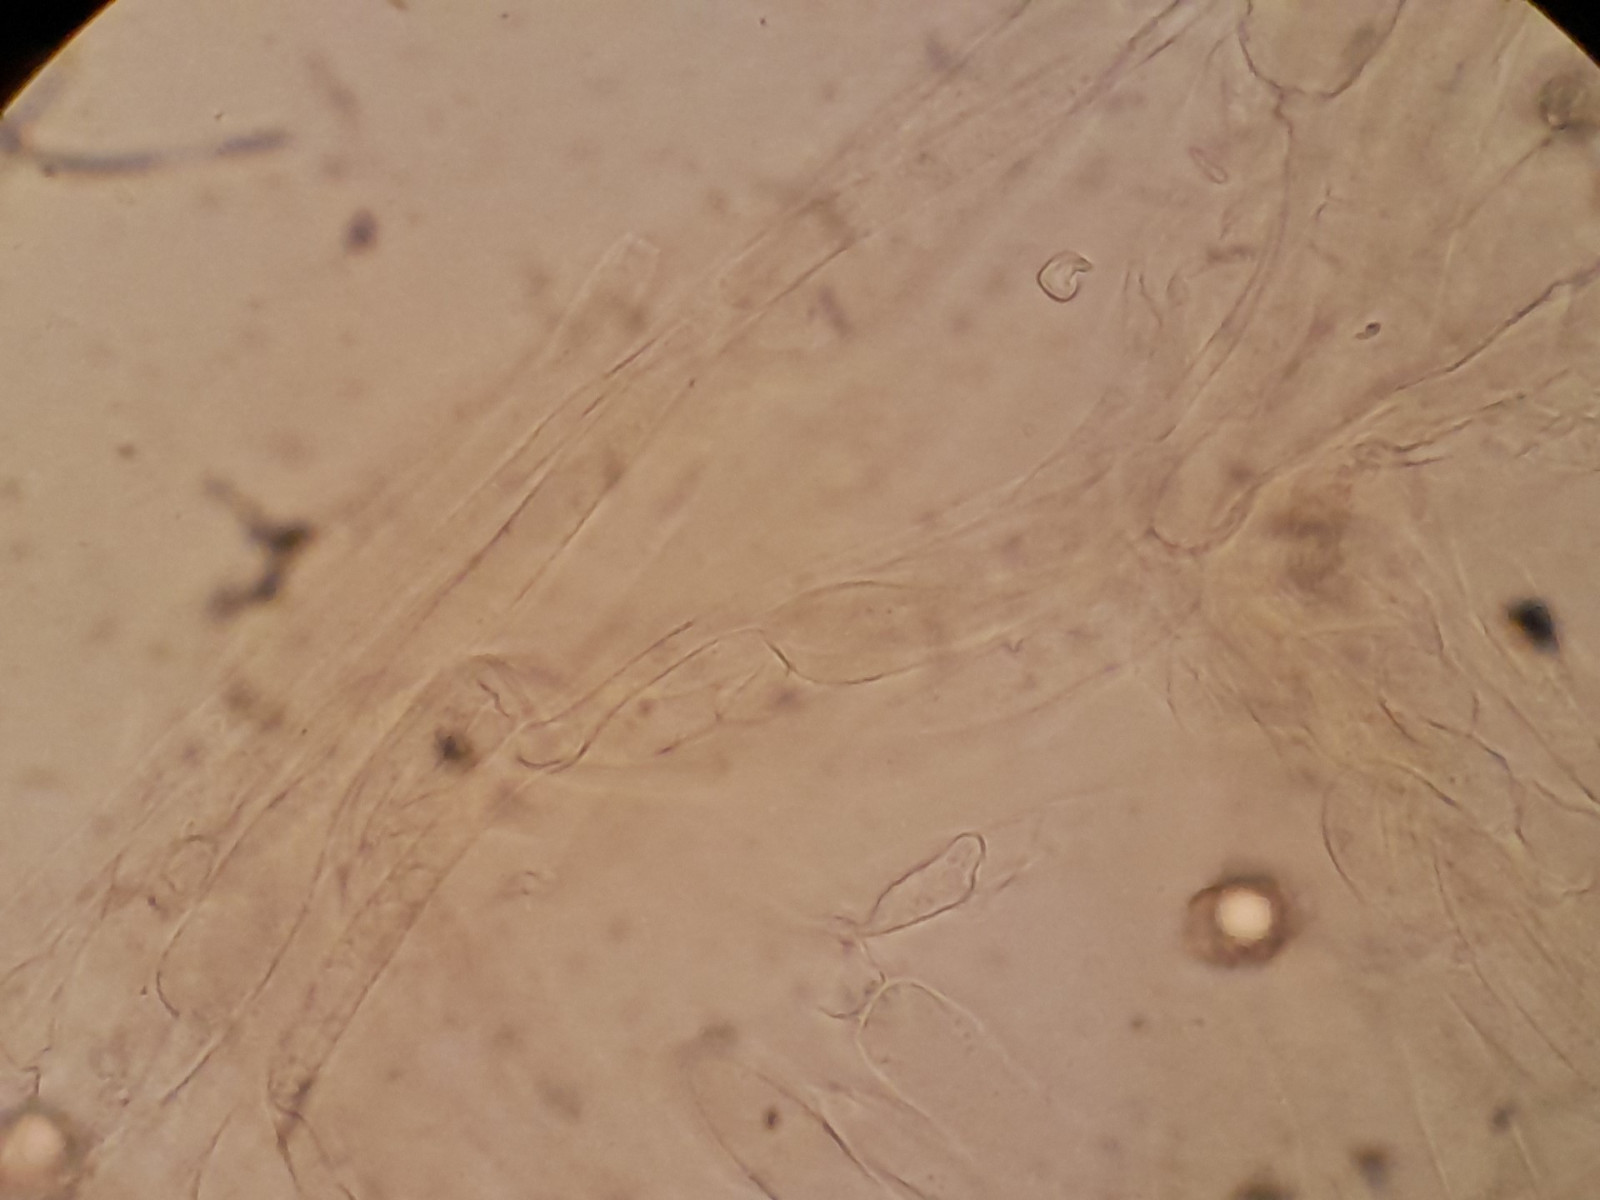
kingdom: Fungi
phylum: Basidiomycota
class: Agaricomycetes
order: Agaricales
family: Entolomataceae
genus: Entoloma
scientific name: Entoloma
